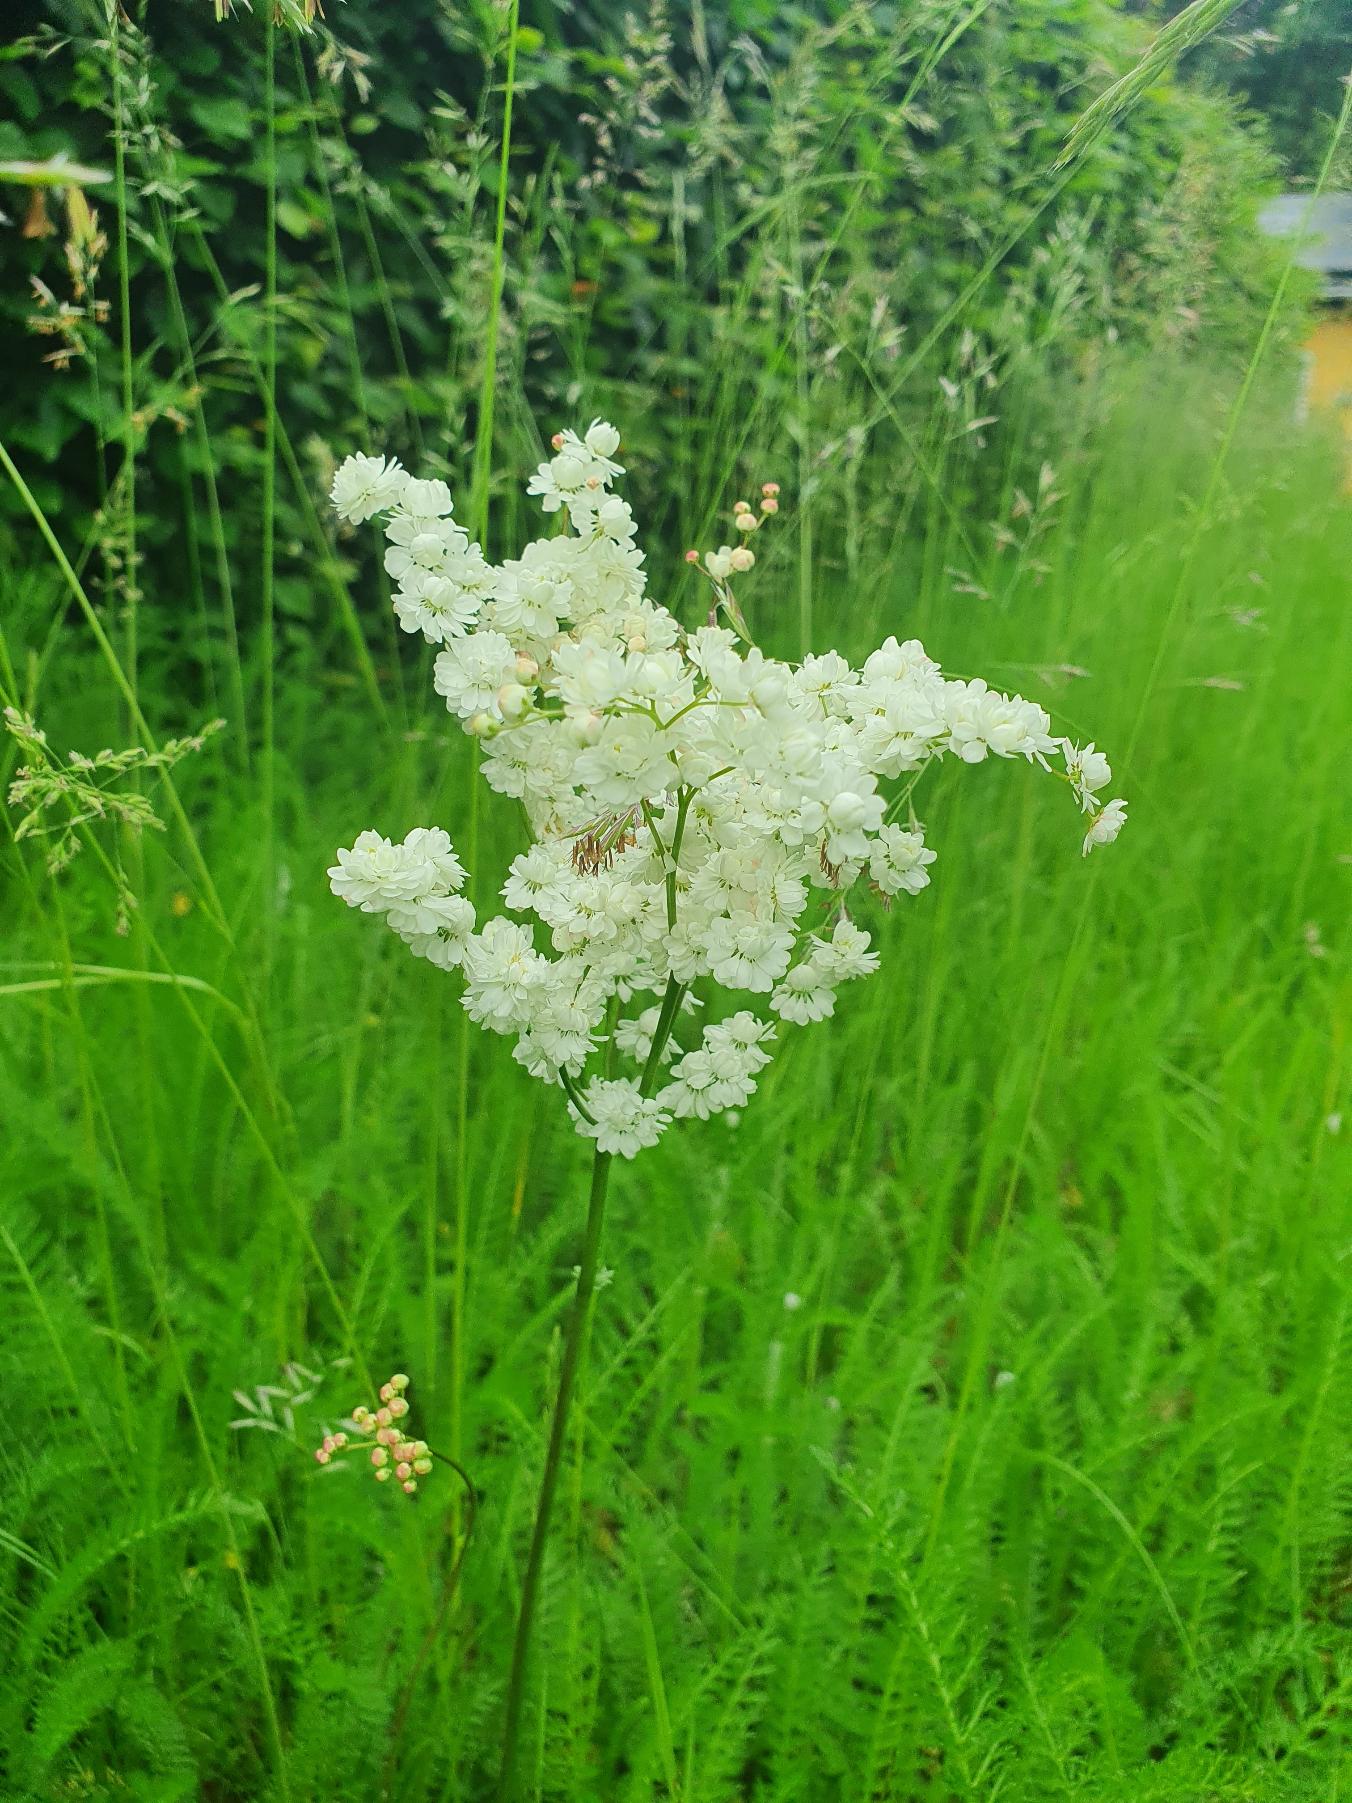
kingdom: Plantae
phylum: Tracheophyta
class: Magnoliopsida
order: Rosales
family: Rosaceae
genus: Filipendula
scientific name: Filipendula vulgaris
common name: Knoldet mjødurt
